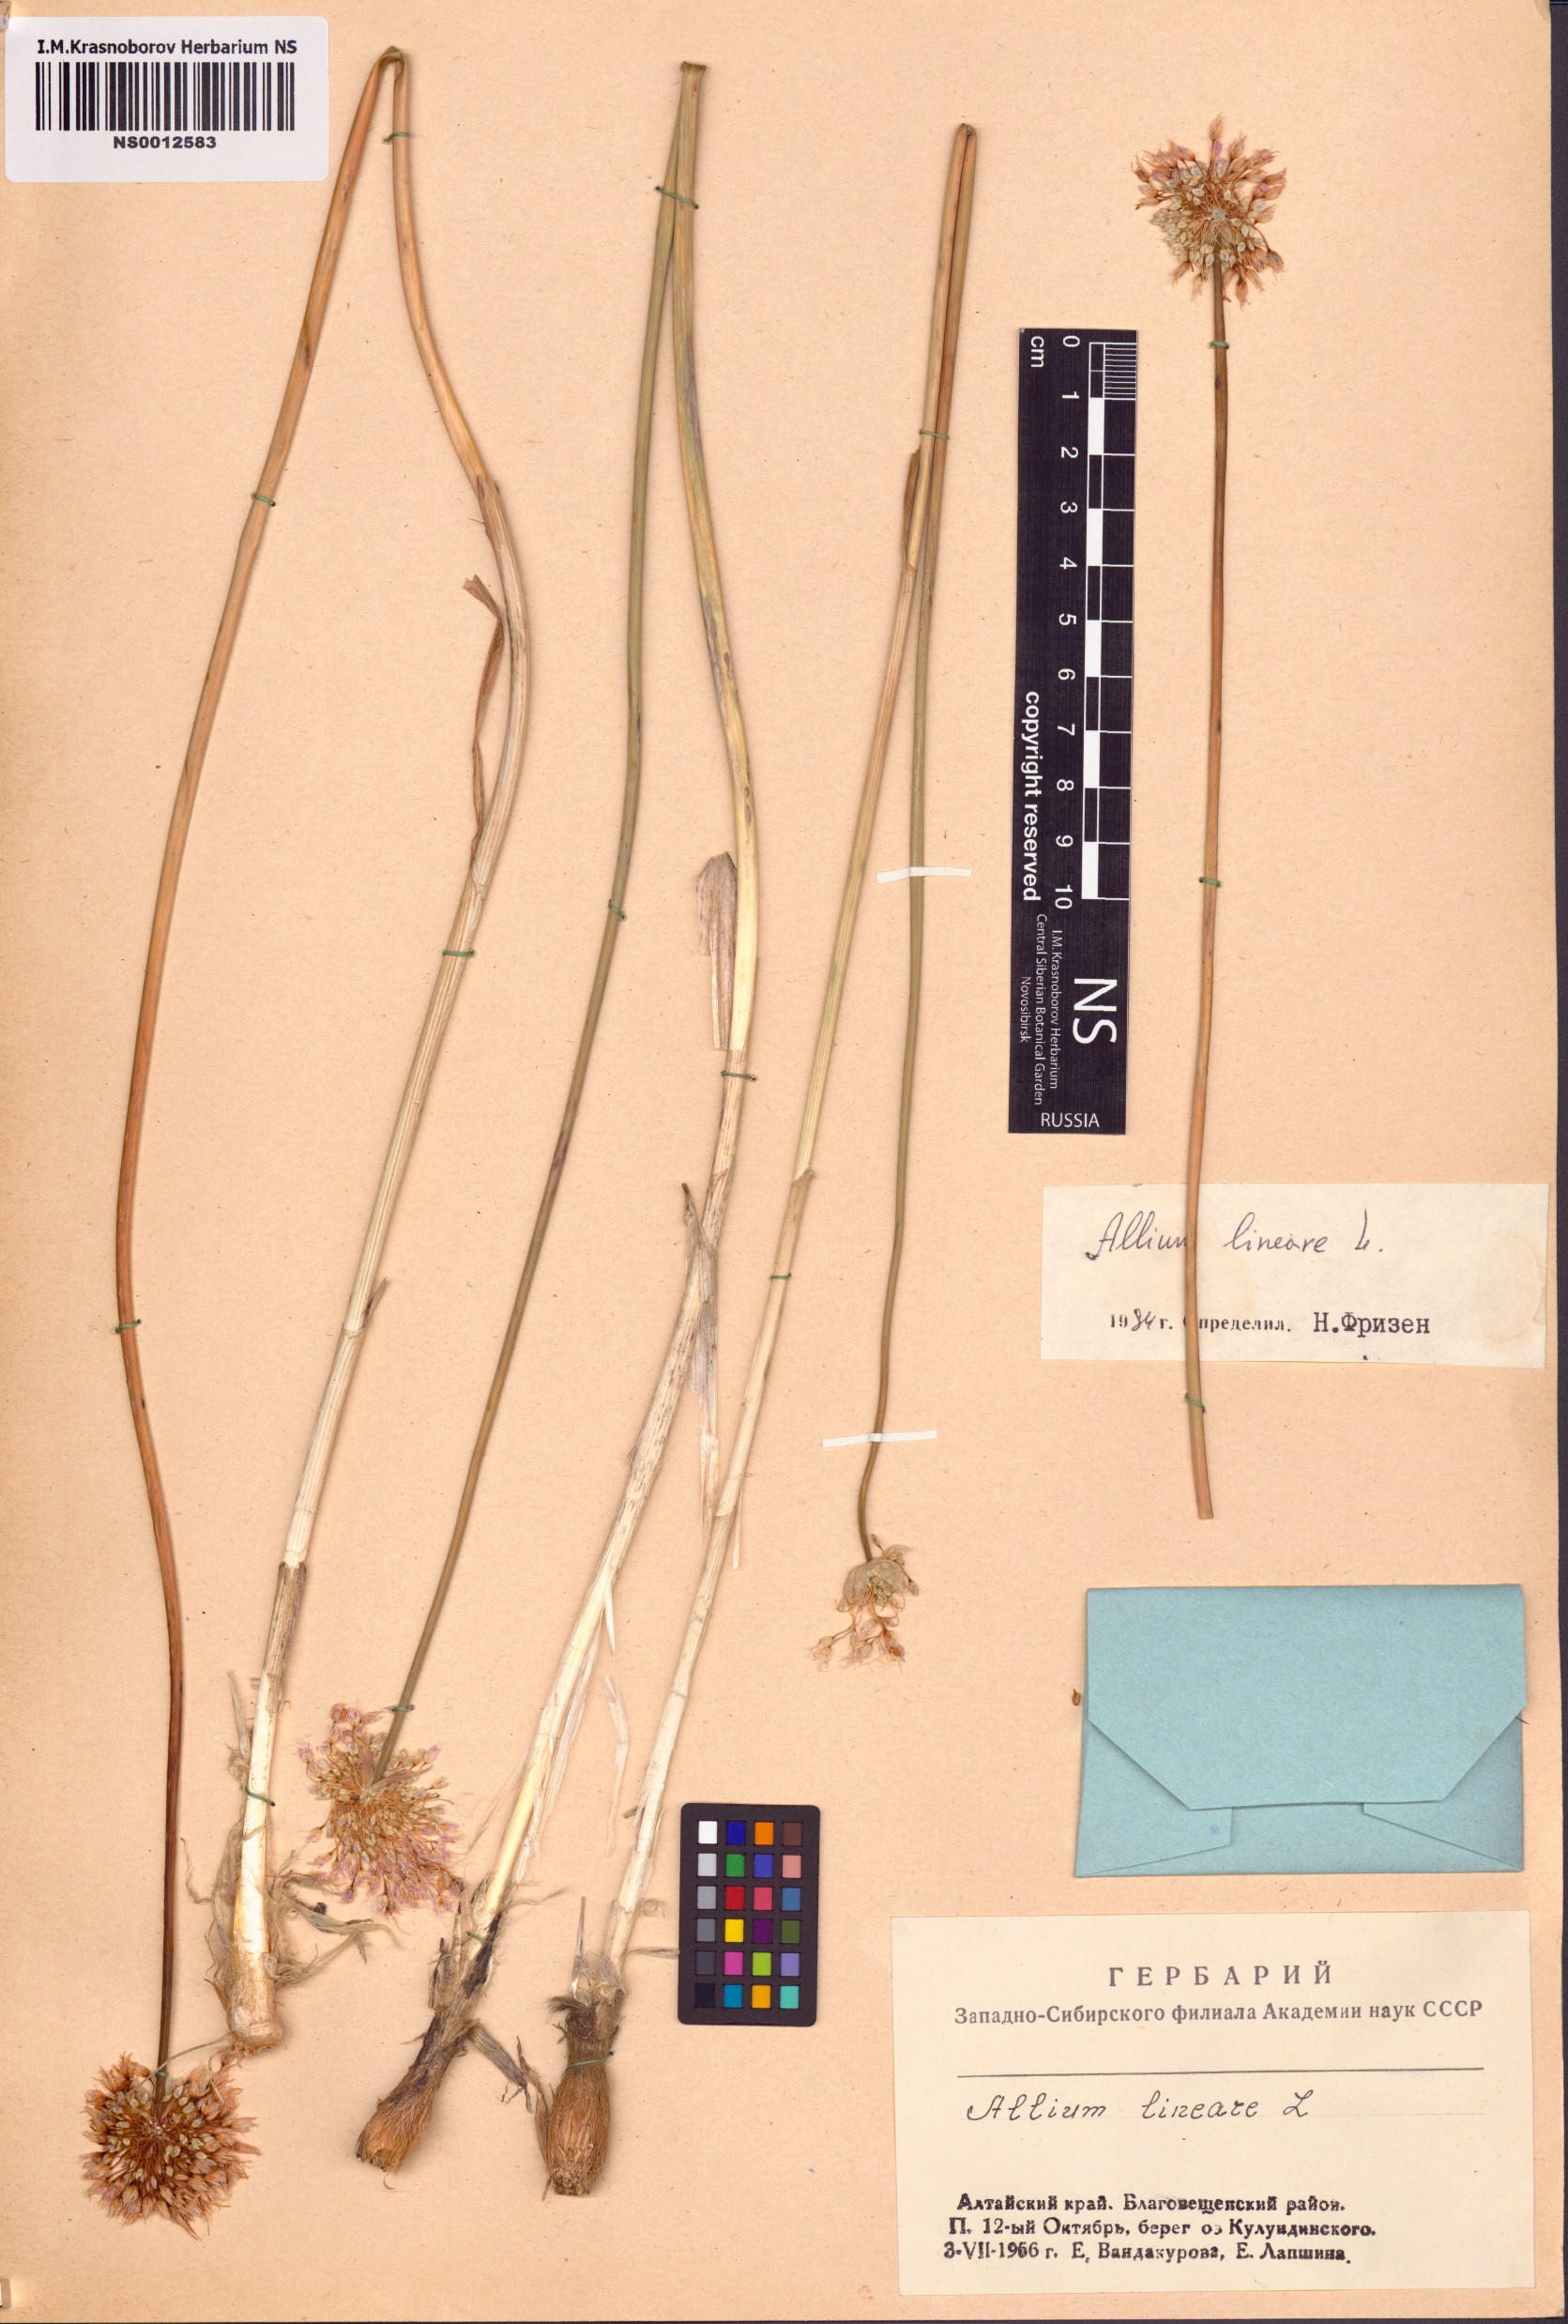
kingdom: Plantae
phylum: Tracheophyta
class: Liliopsida
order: Asparagales
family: Amaryllidaceae
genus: Allium
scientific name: Allium lineare
